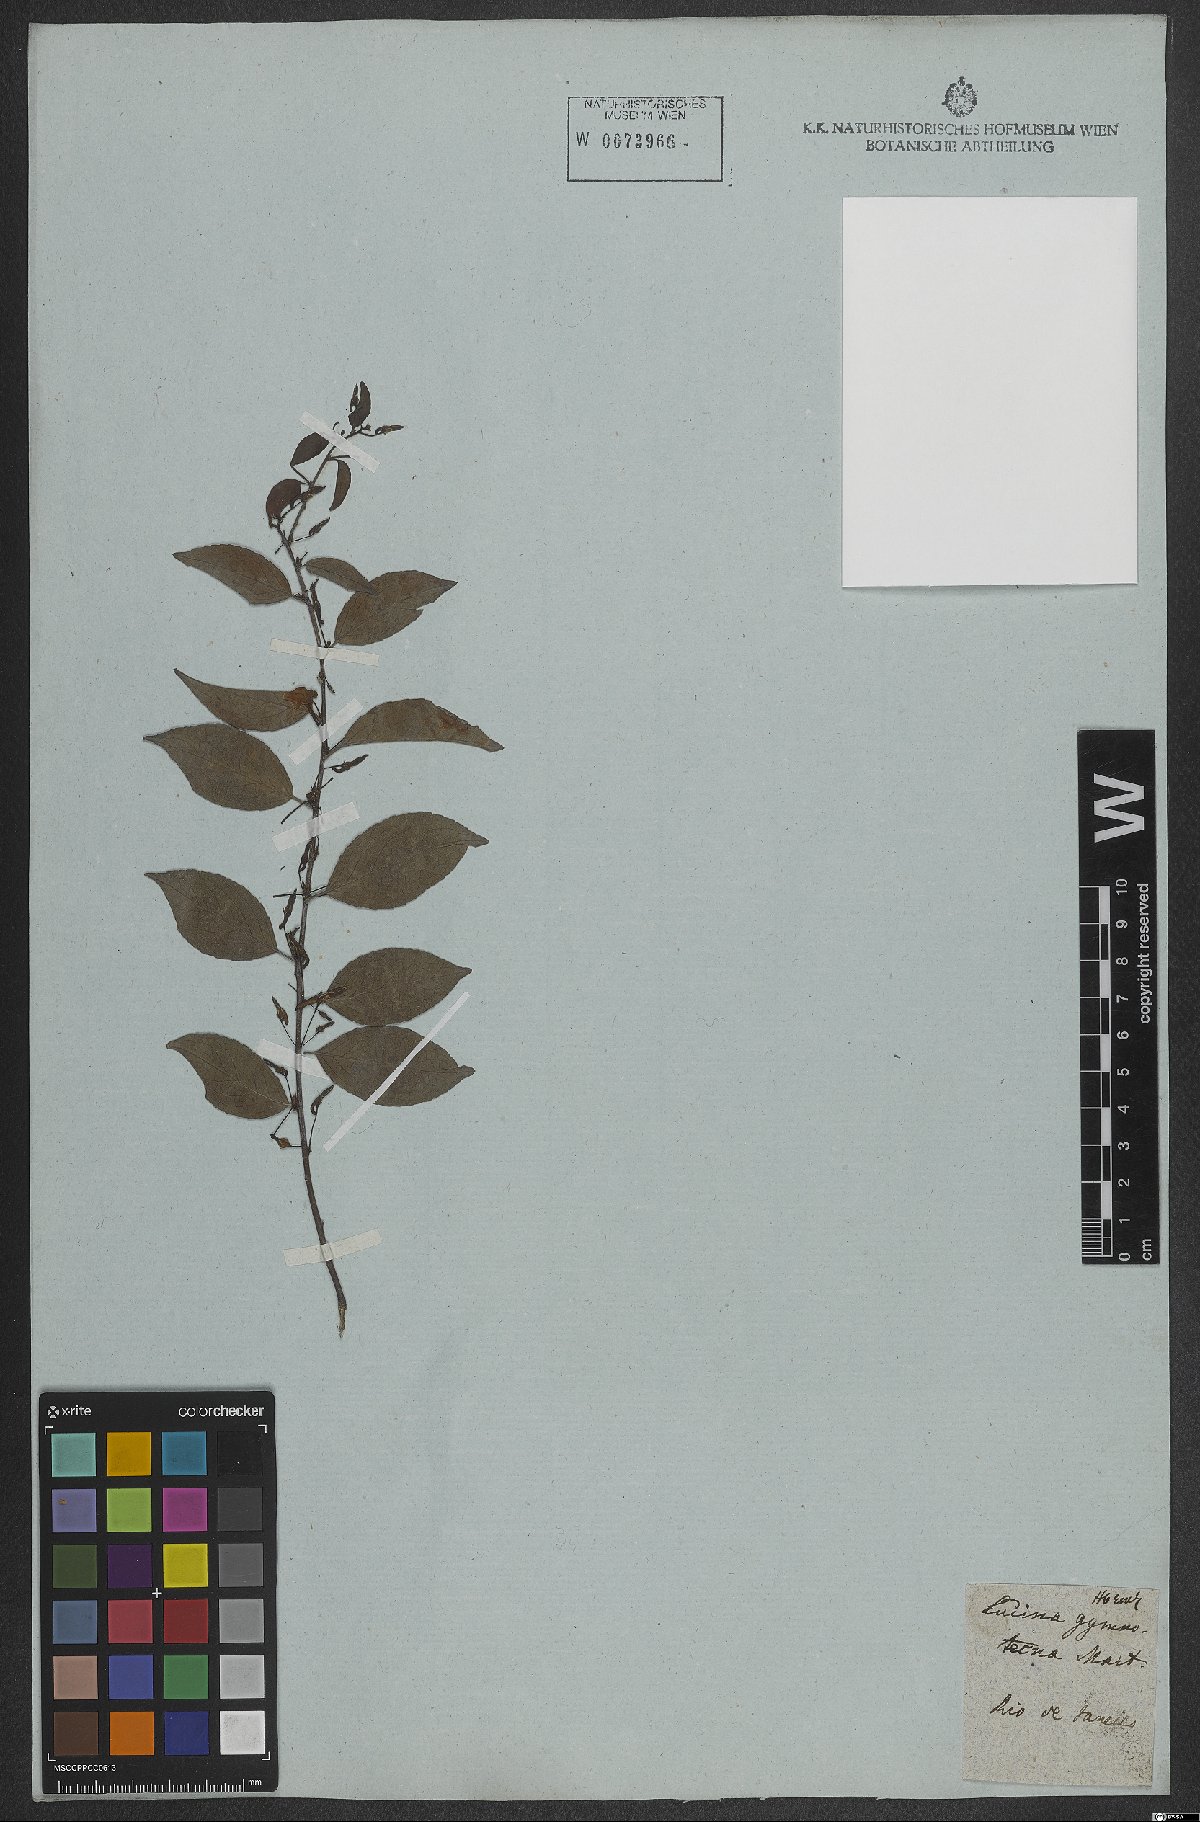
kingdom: Plantae
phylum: Tracheophyta
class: Magnoliopsida
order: Malpighiales
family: Violaceae
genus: Anchietea
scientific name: Anchietea pyrifolia
